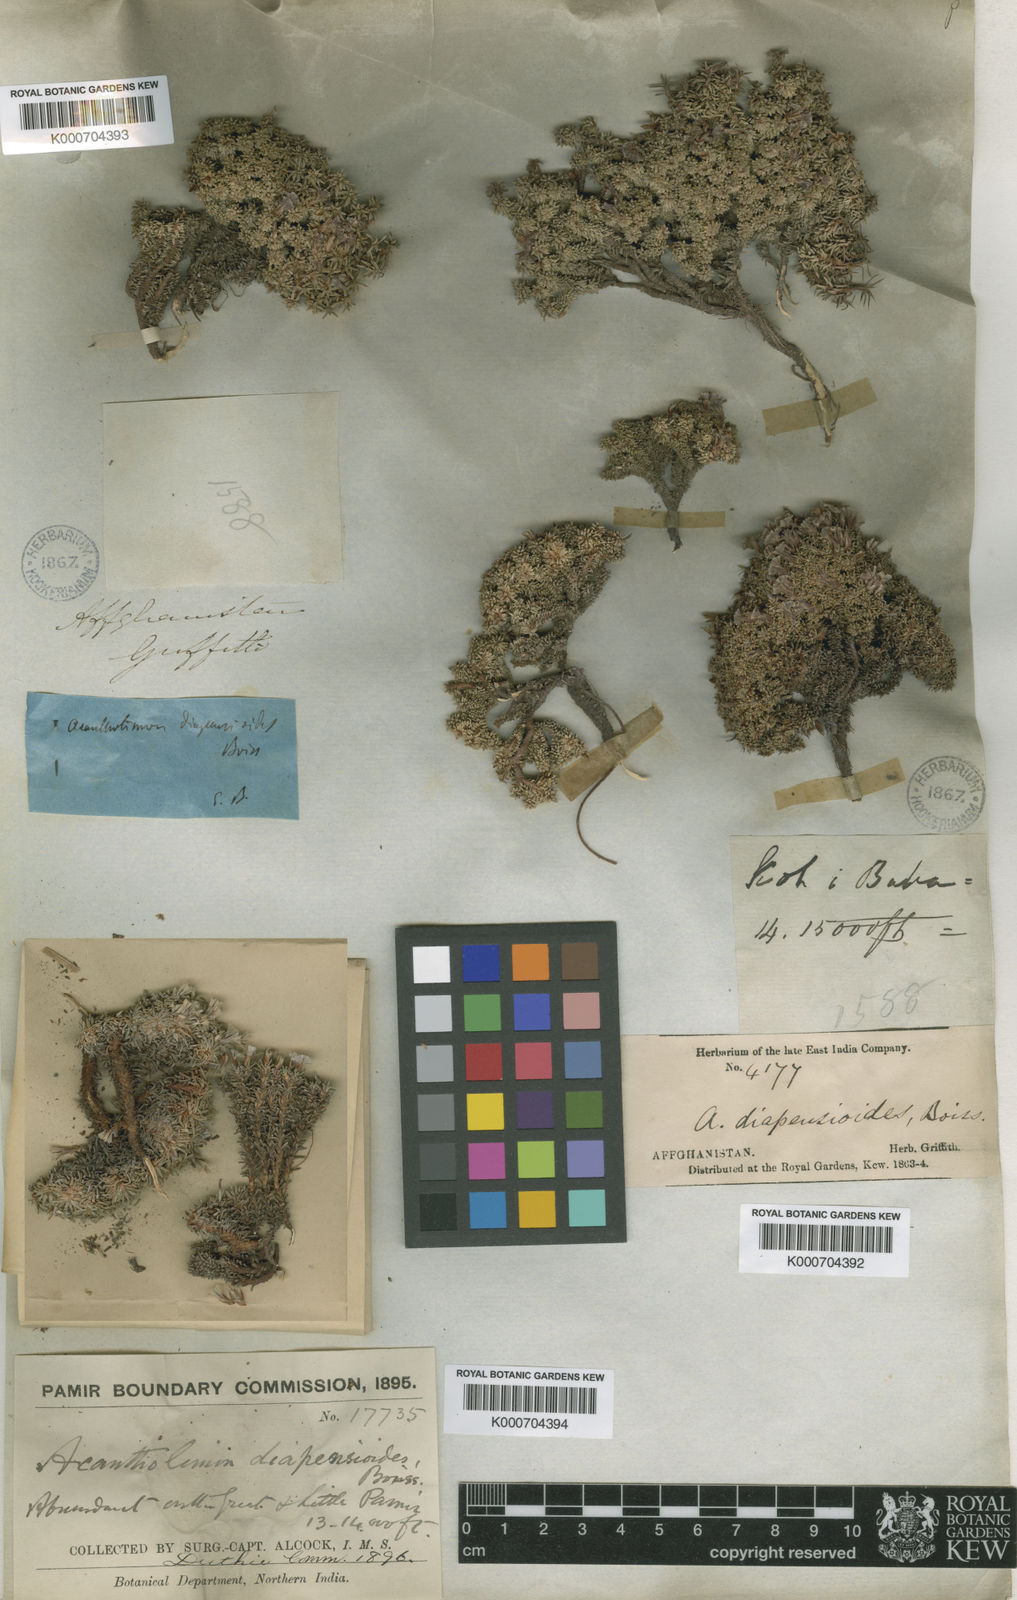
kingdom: Plantae
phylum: Tracheophyta
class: Magnoliopsida
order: Caryophyllales
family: Plumbaginaceae
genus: Acantholimon
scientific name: Acantholimon diapensioides
